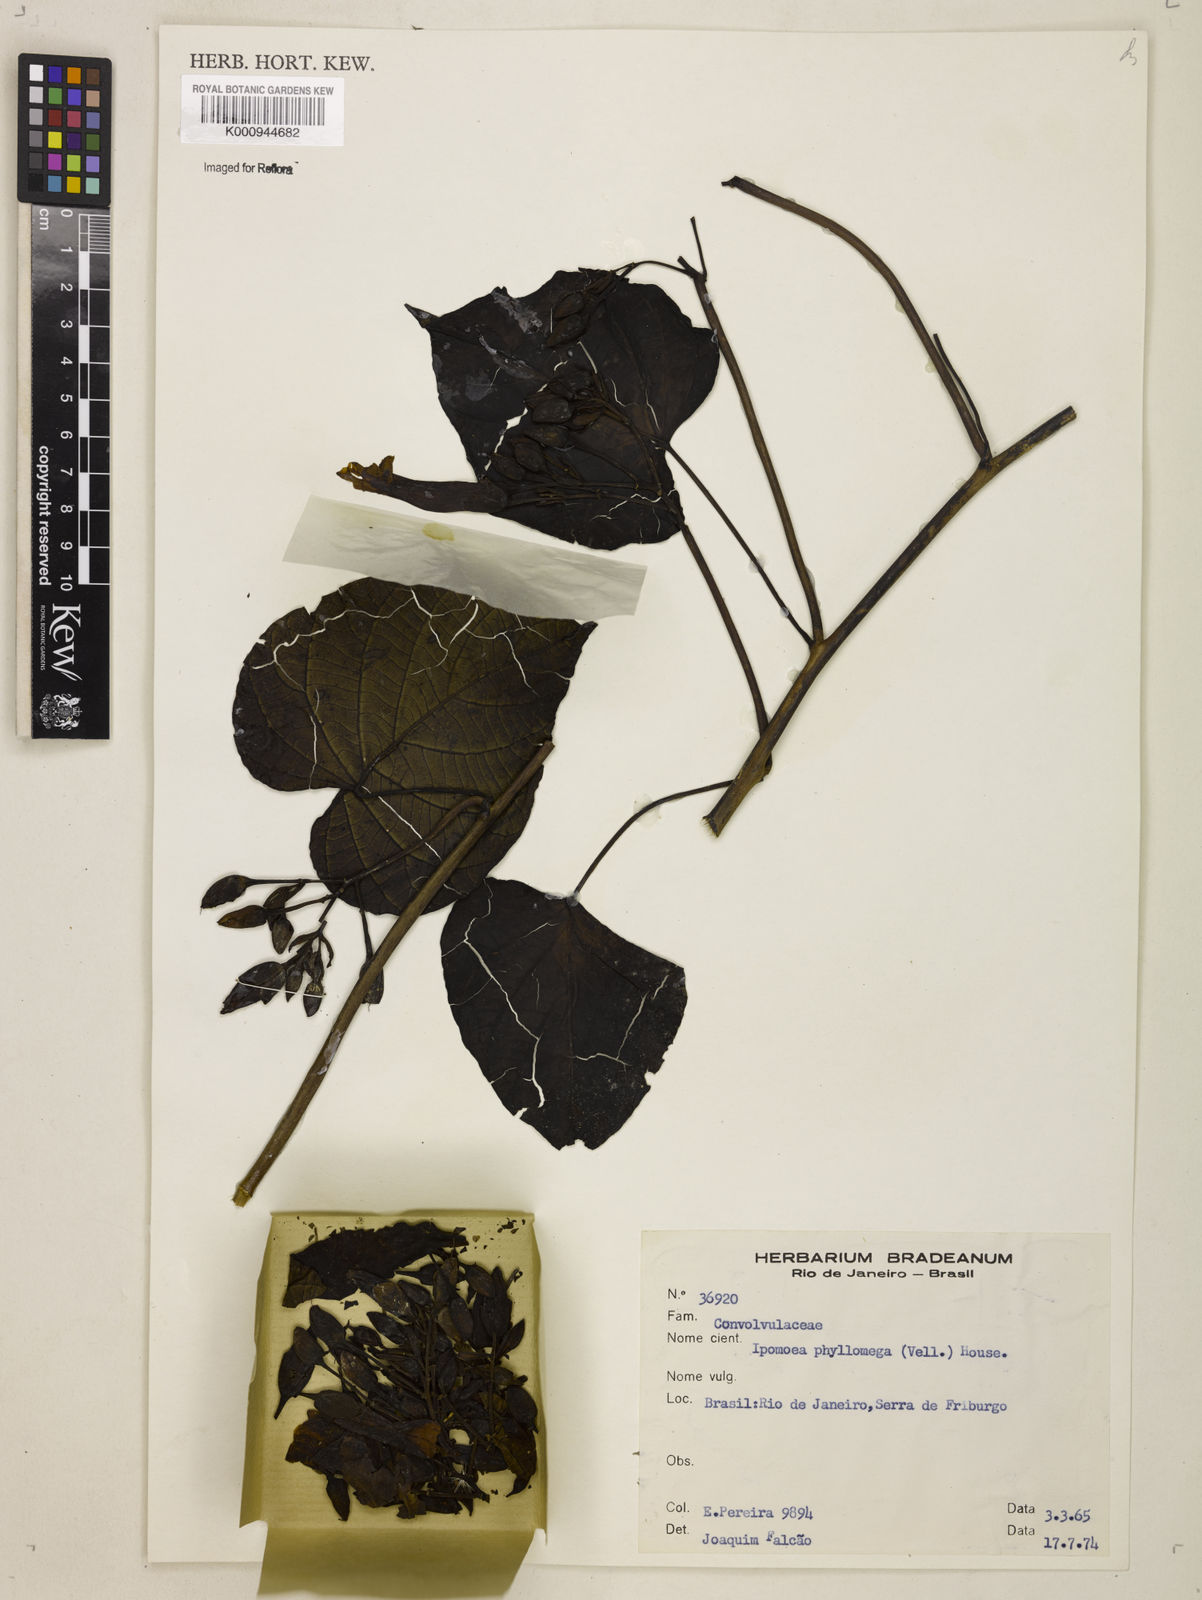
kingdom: Plantae
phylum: Tracheophyta
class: Magnoliopsida
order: Solanales
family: Convolvulaceae
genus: Ipomoea
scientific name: Ipomoea philomega
